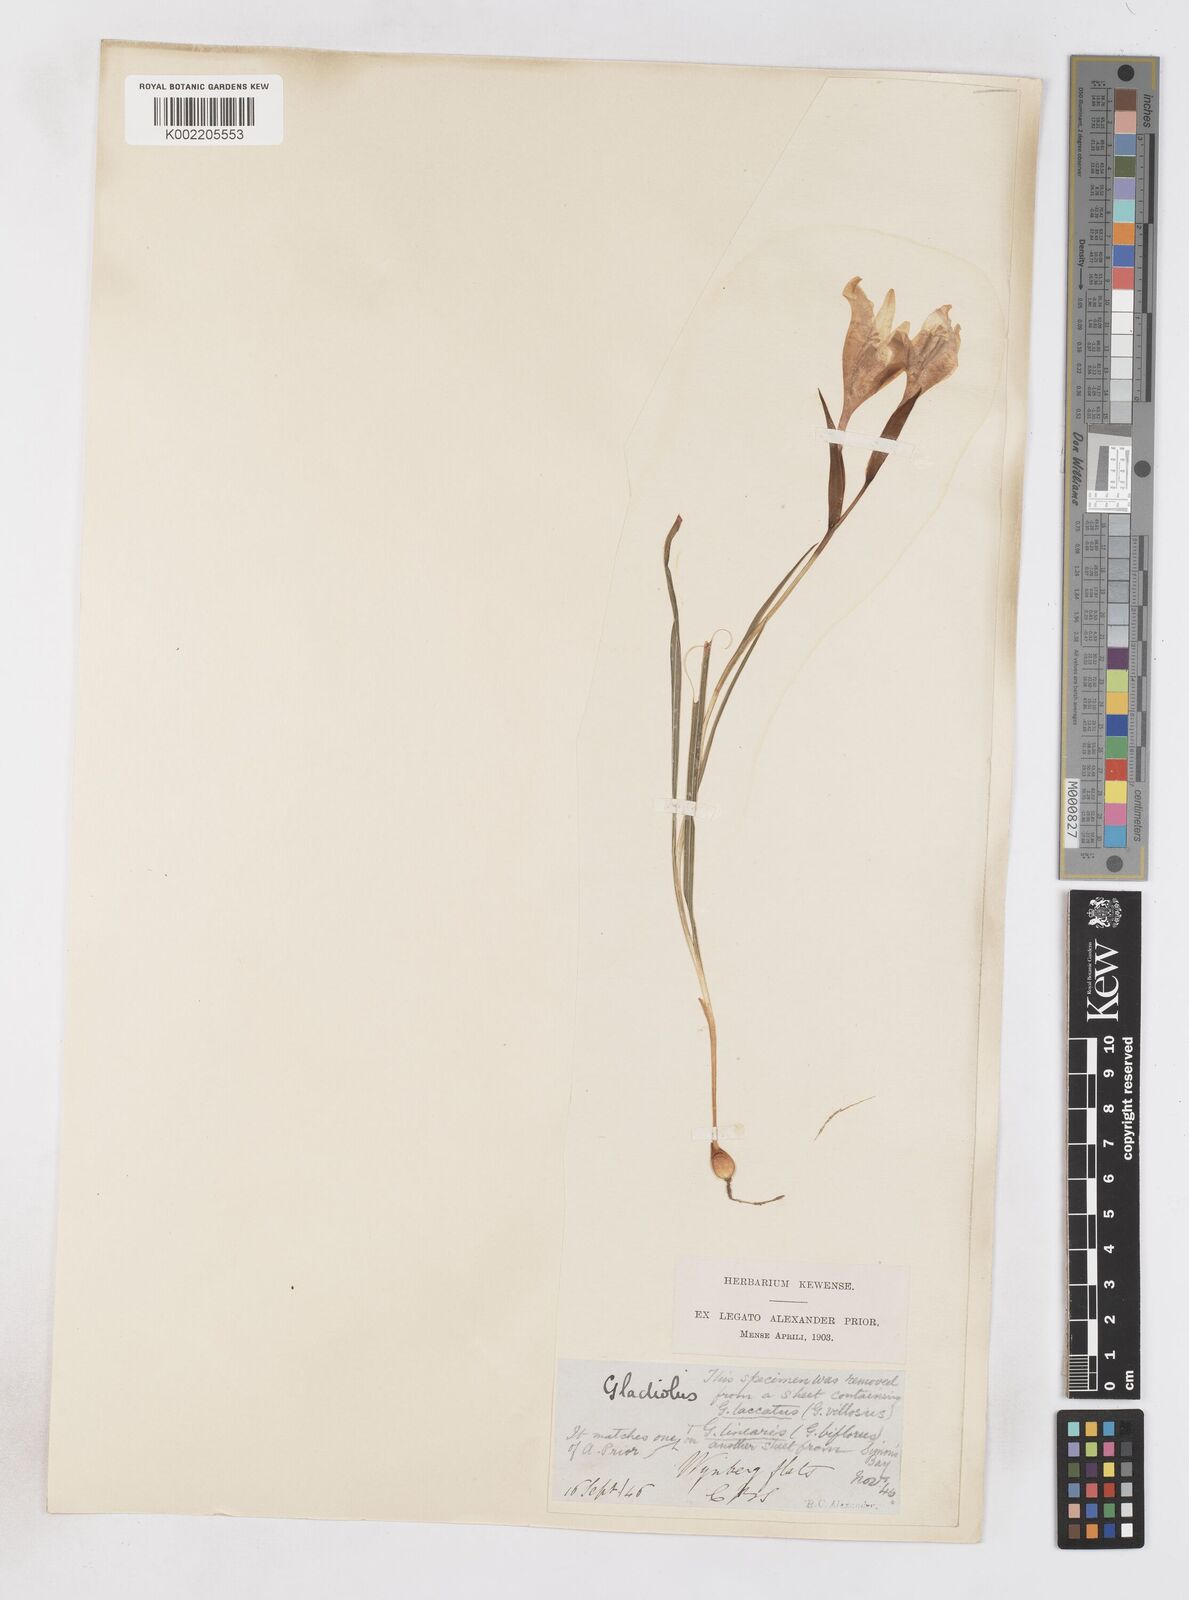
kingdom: Plantae
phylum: Tracheophyta
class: Liliopsida
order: Asparagales
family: Iridaceae
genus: Gladiolus
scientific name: Gladiolus carneus
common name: Painted-lady
